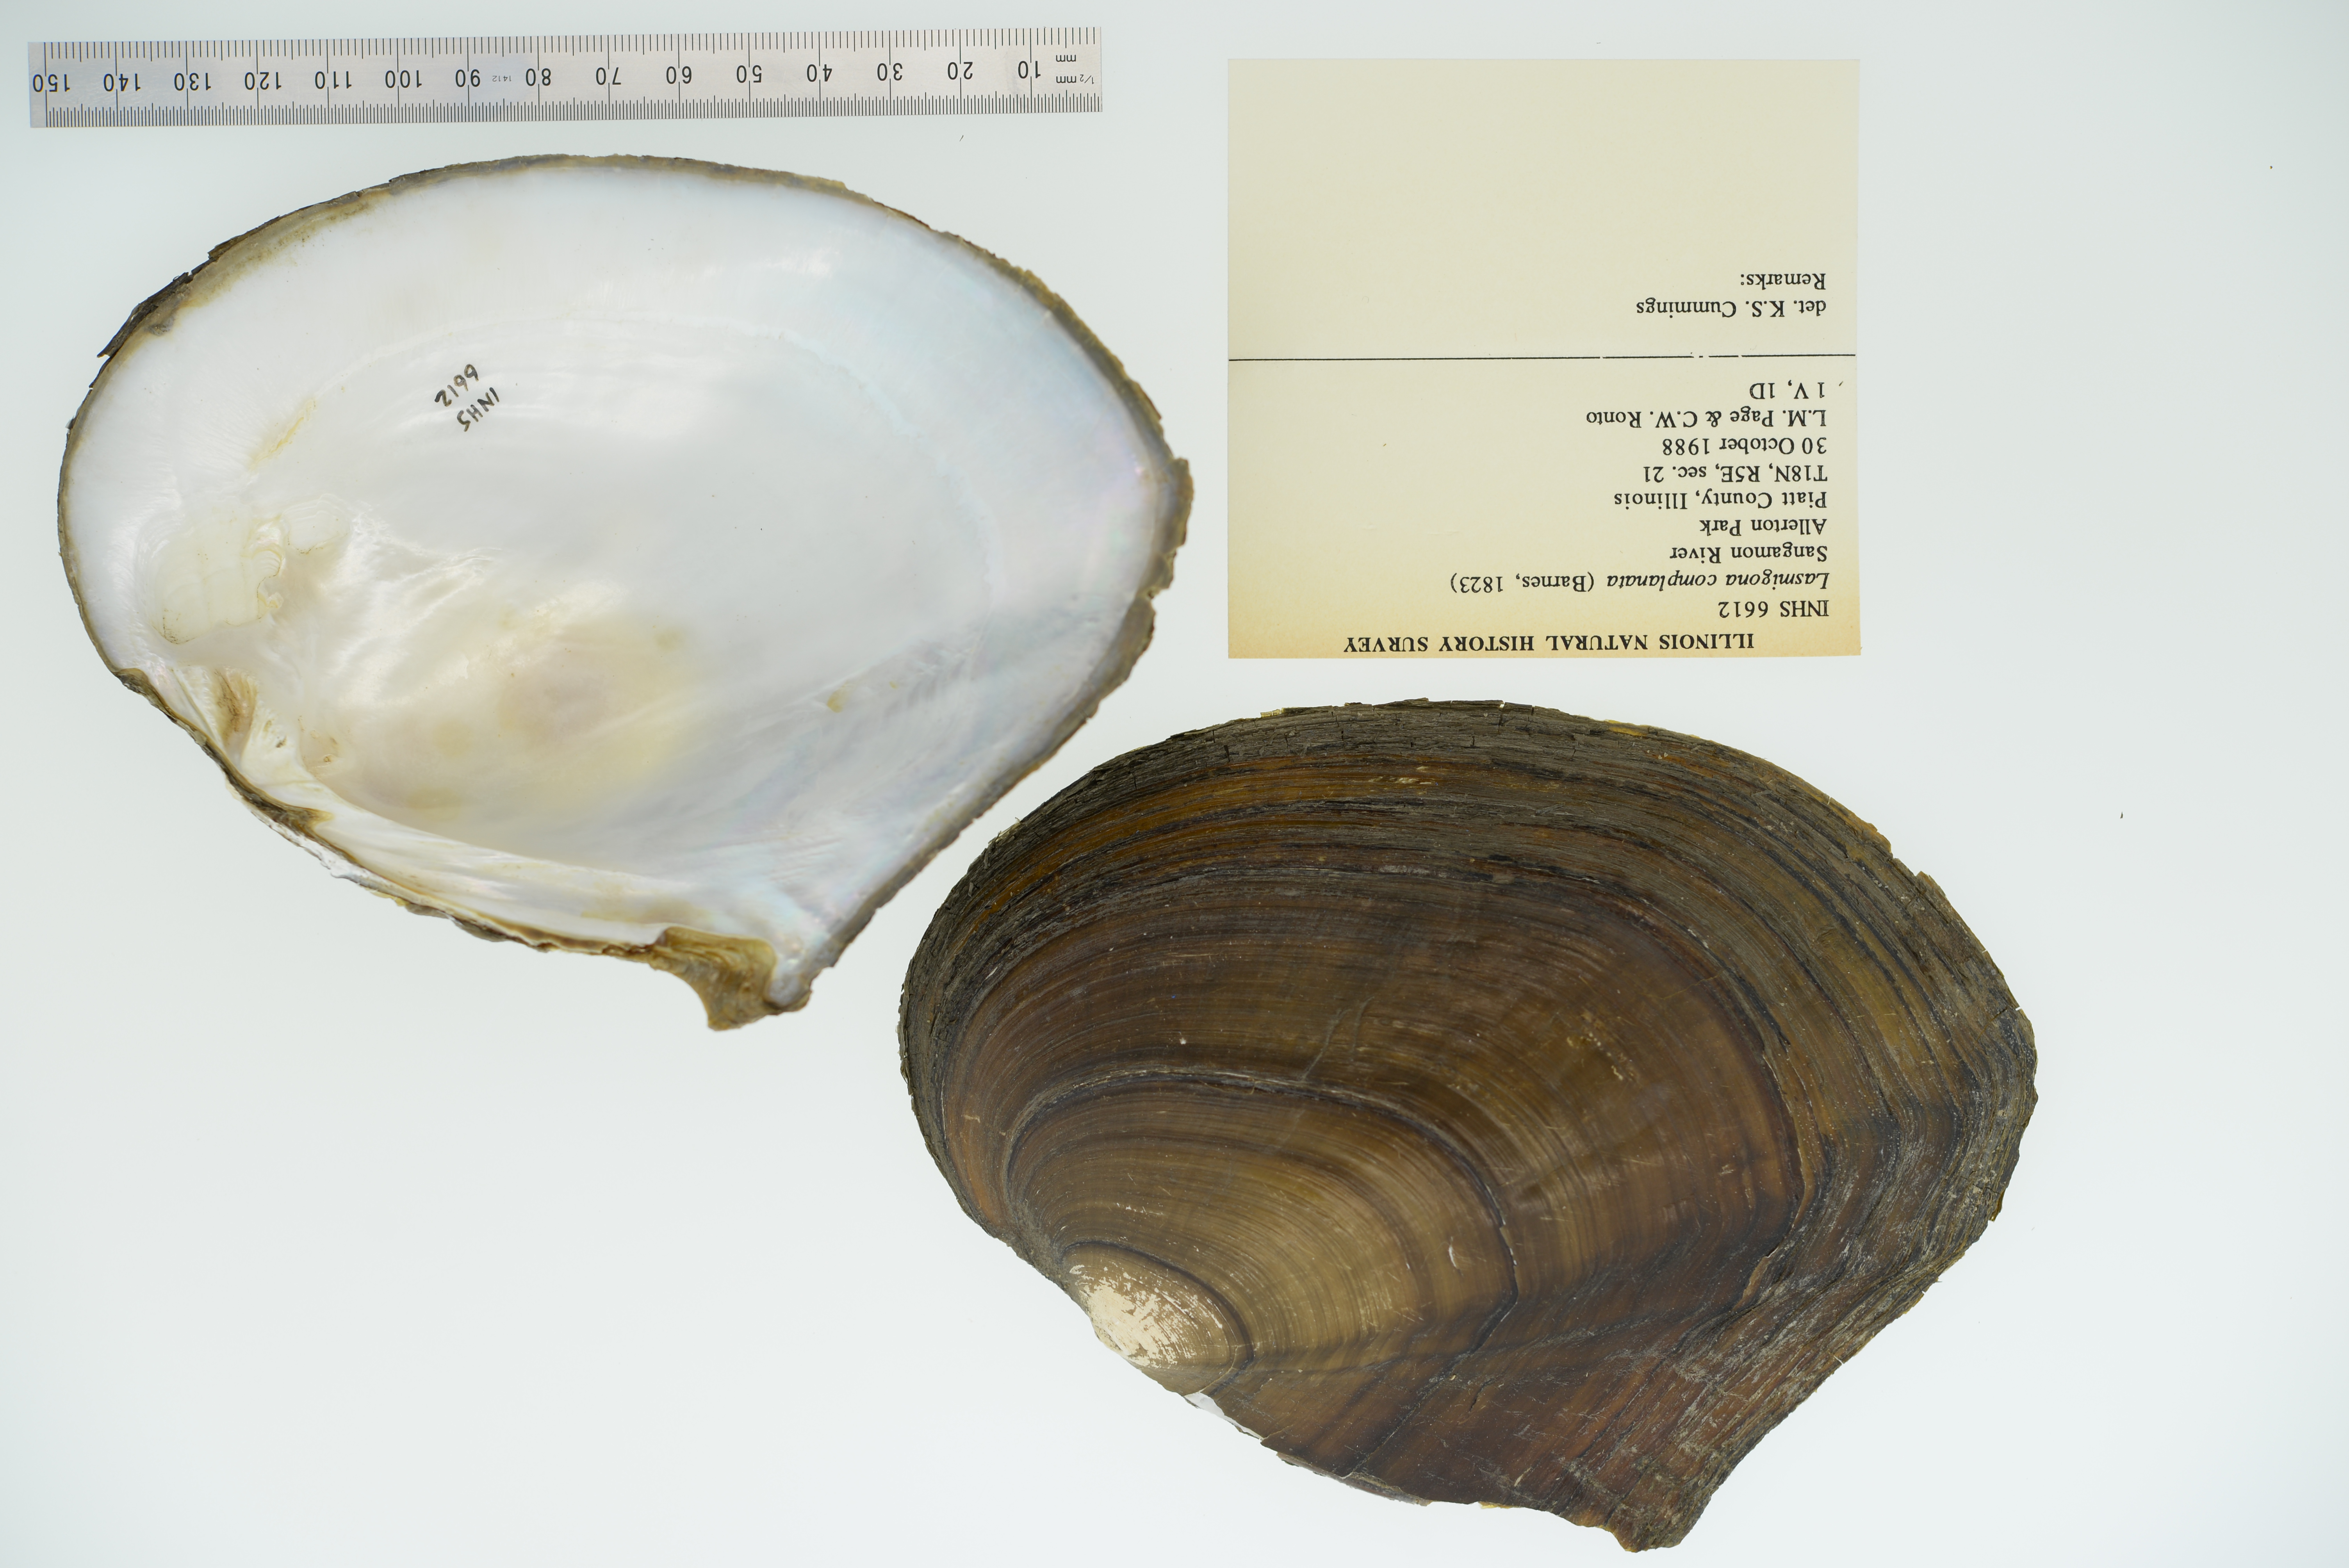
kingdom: Animalia
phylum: Mollusca
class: Bivalvia
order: Unionida
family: Unionidae
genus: Lasmigona
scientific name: Lasmigona complanata
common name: White heelsplitter
